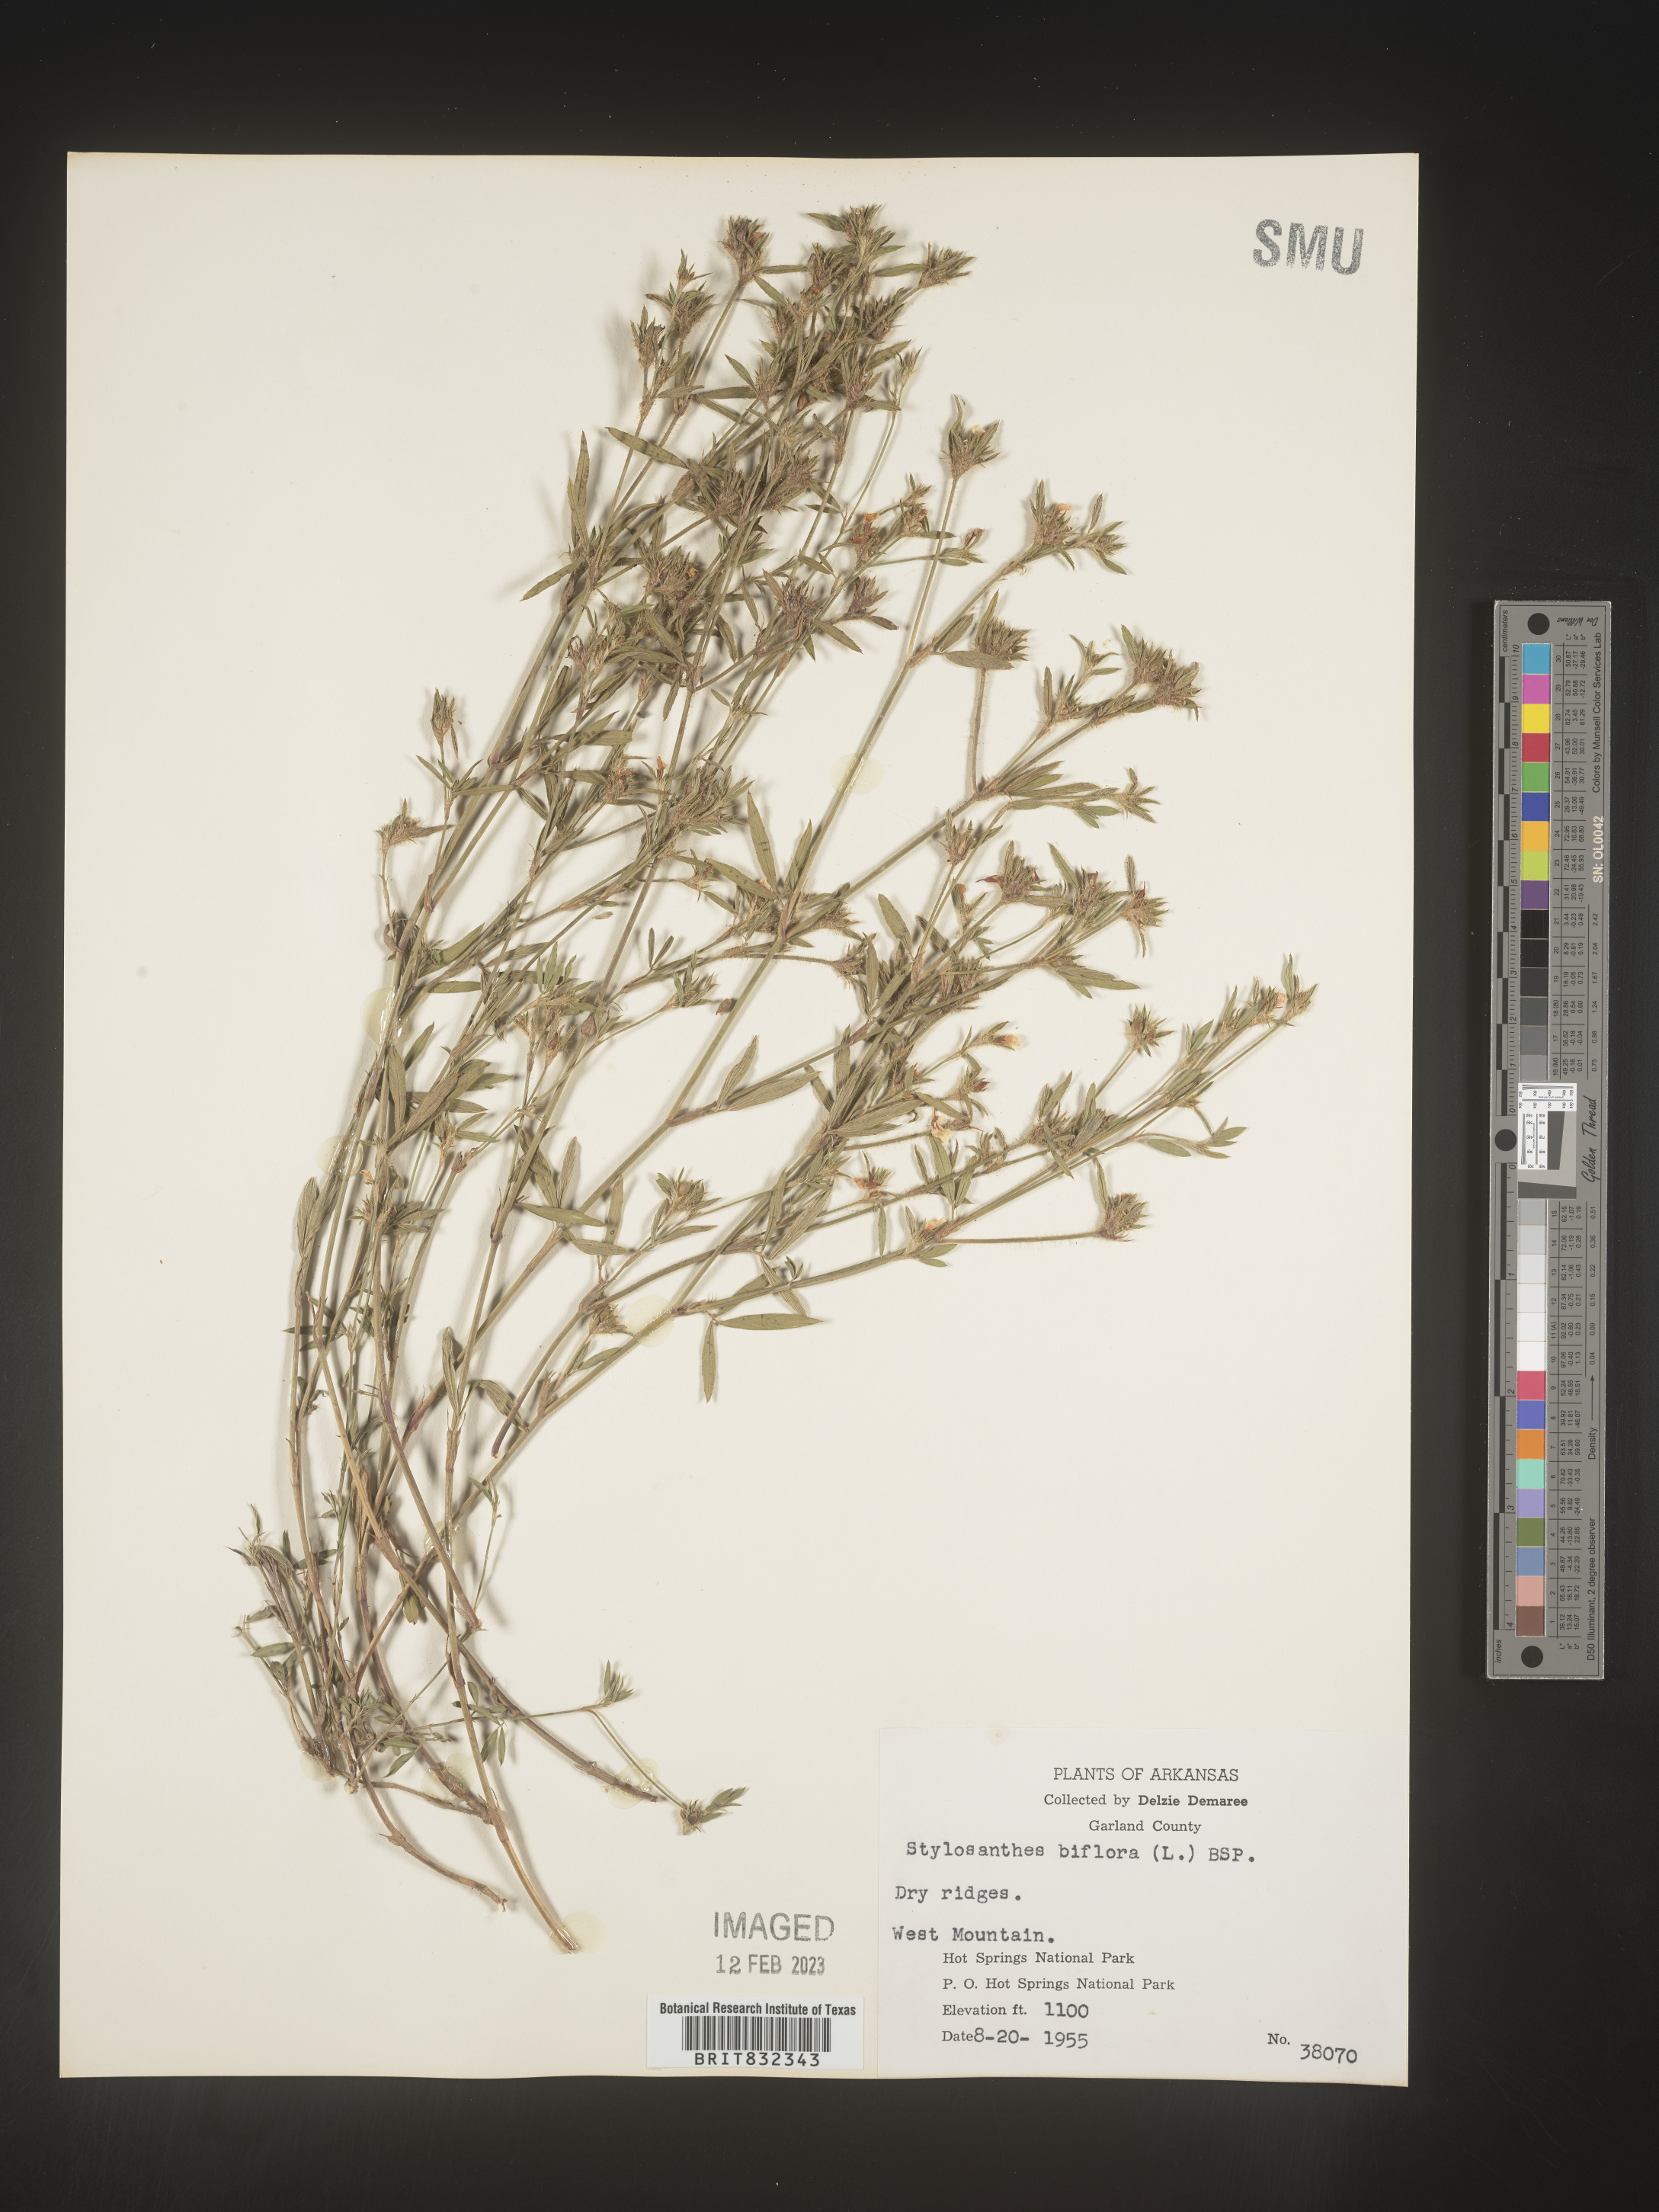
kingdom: Plantae
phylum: Tracheophyta
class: Magnoliopsida
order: Fabales
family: Fabaceae
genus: Stylosanthes
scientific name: Stylosanthes biflora
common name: Two-flower pencil-flower
